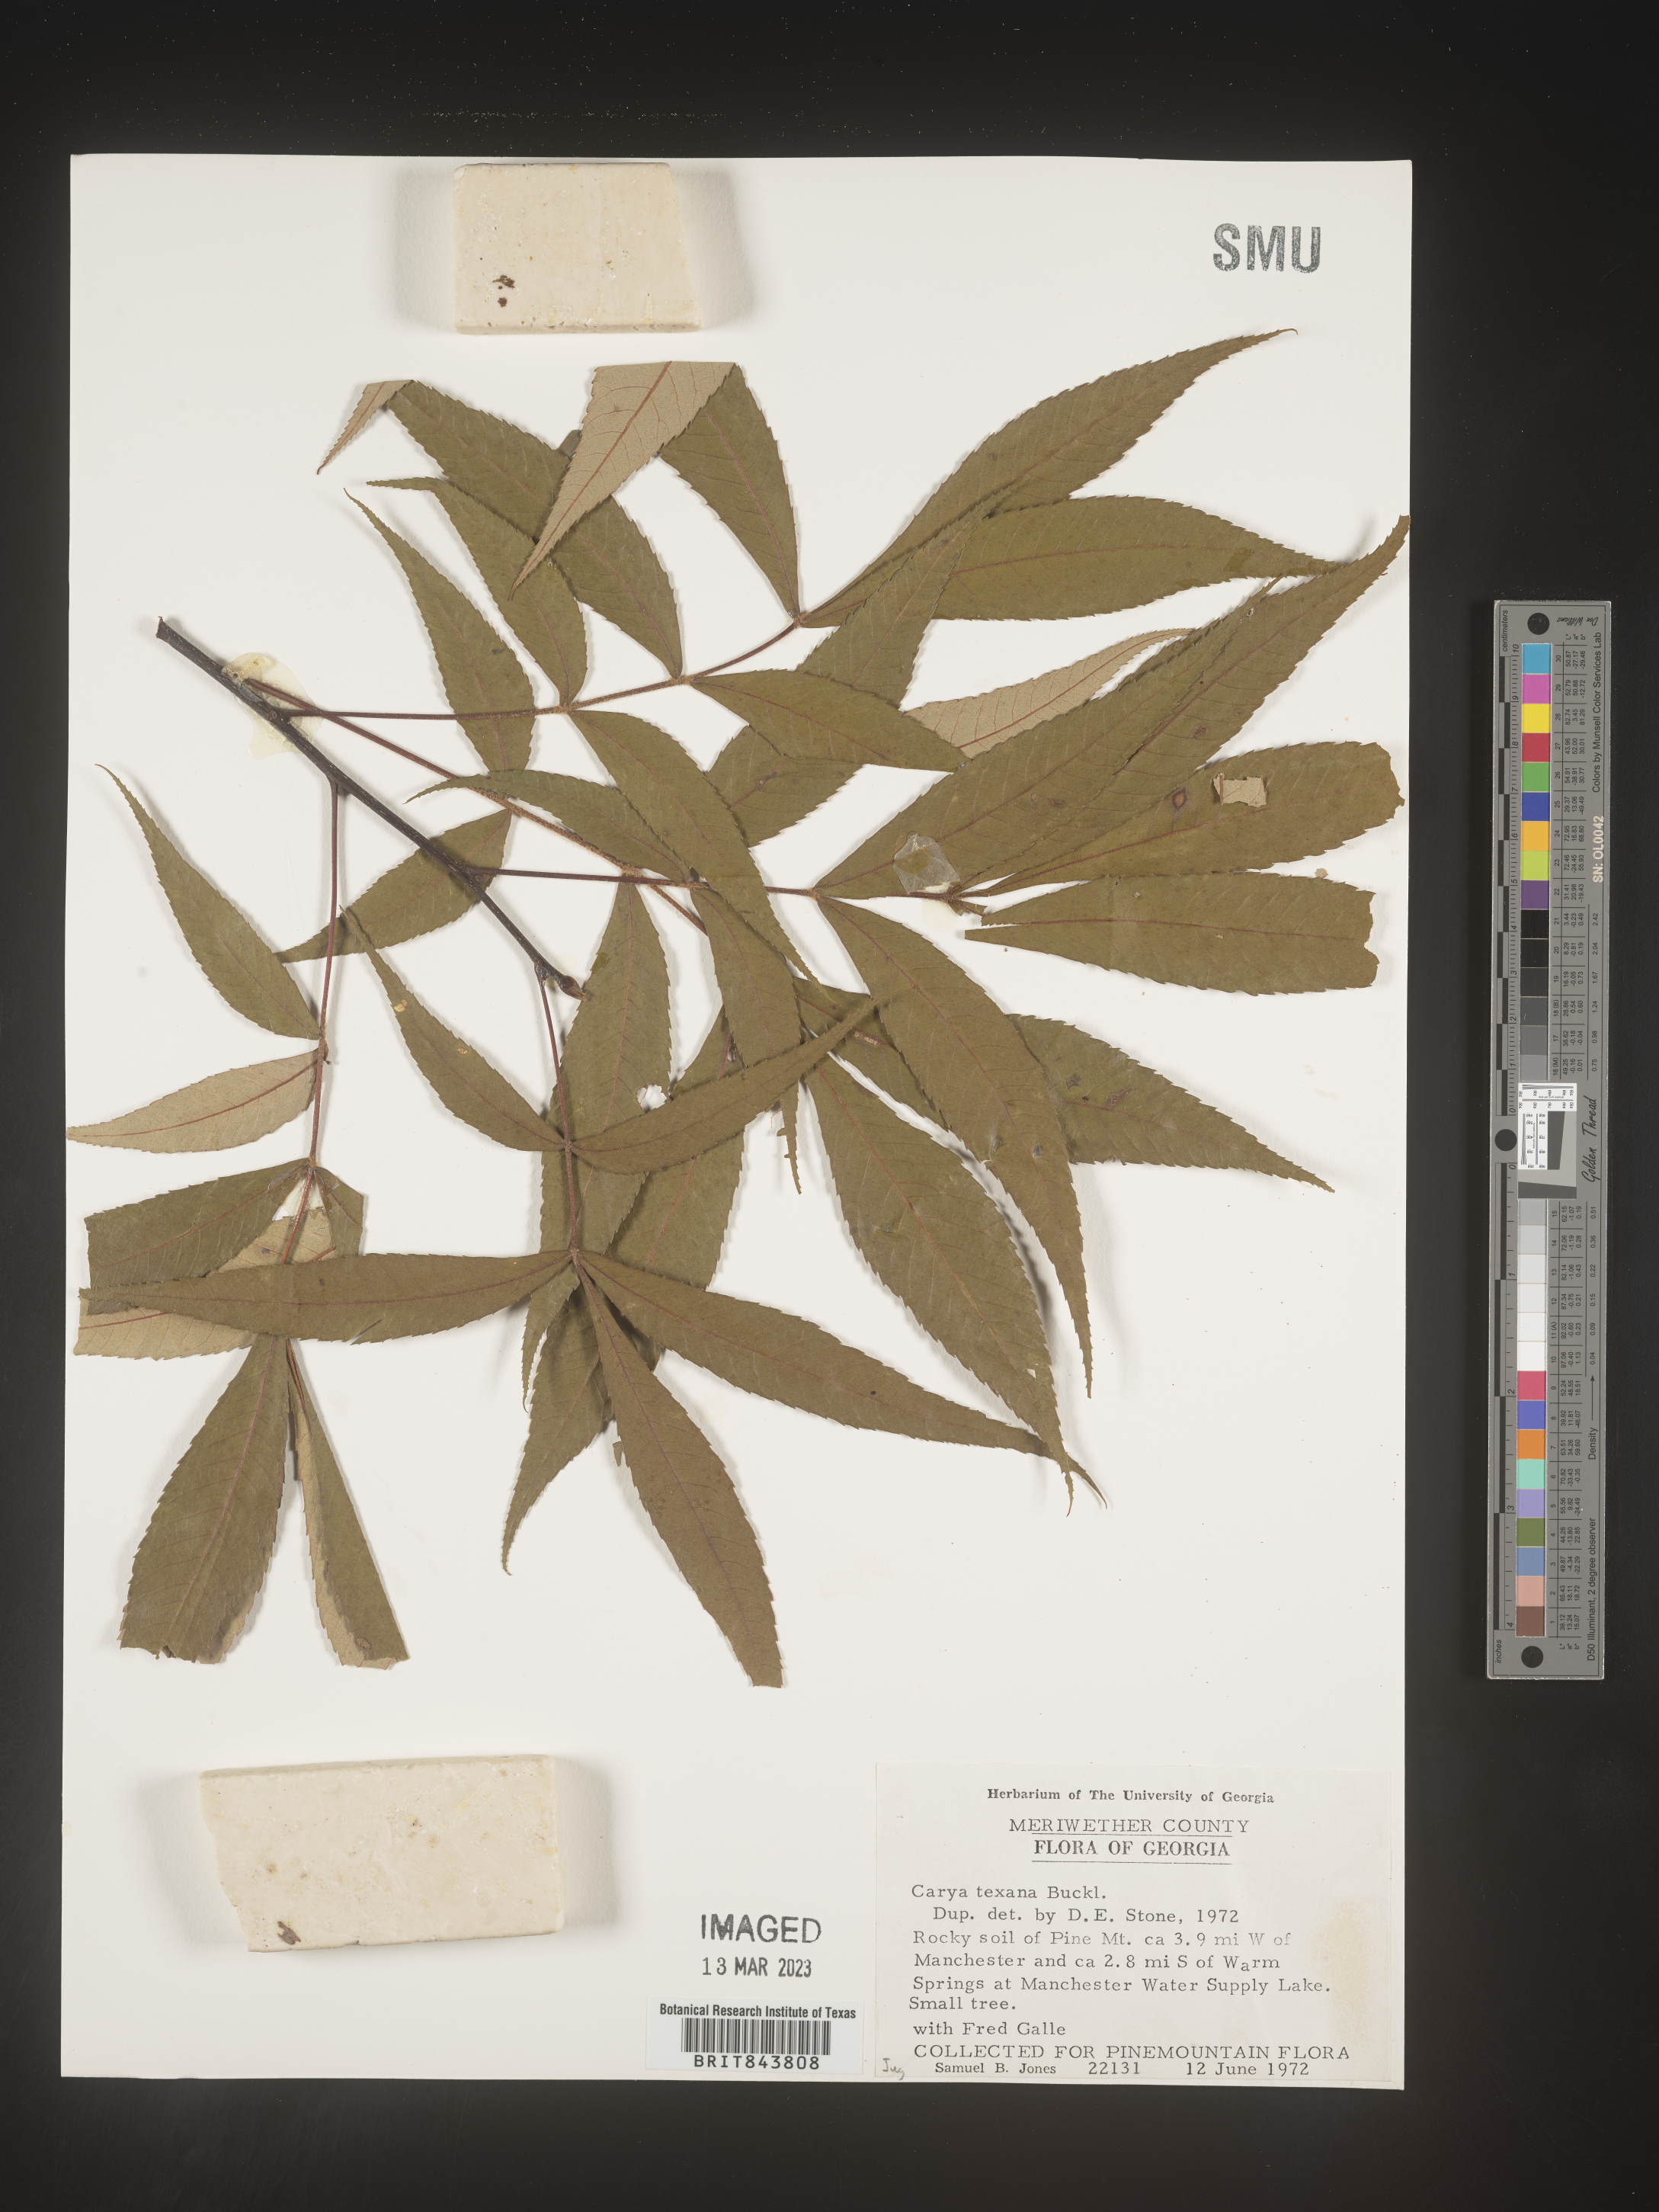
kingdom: Plantae
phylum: Tracheophyta
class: Magnoliopsida
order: Fagales
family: Juglandaceae
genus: Carya
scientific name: Carya texana
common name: Black hickory
